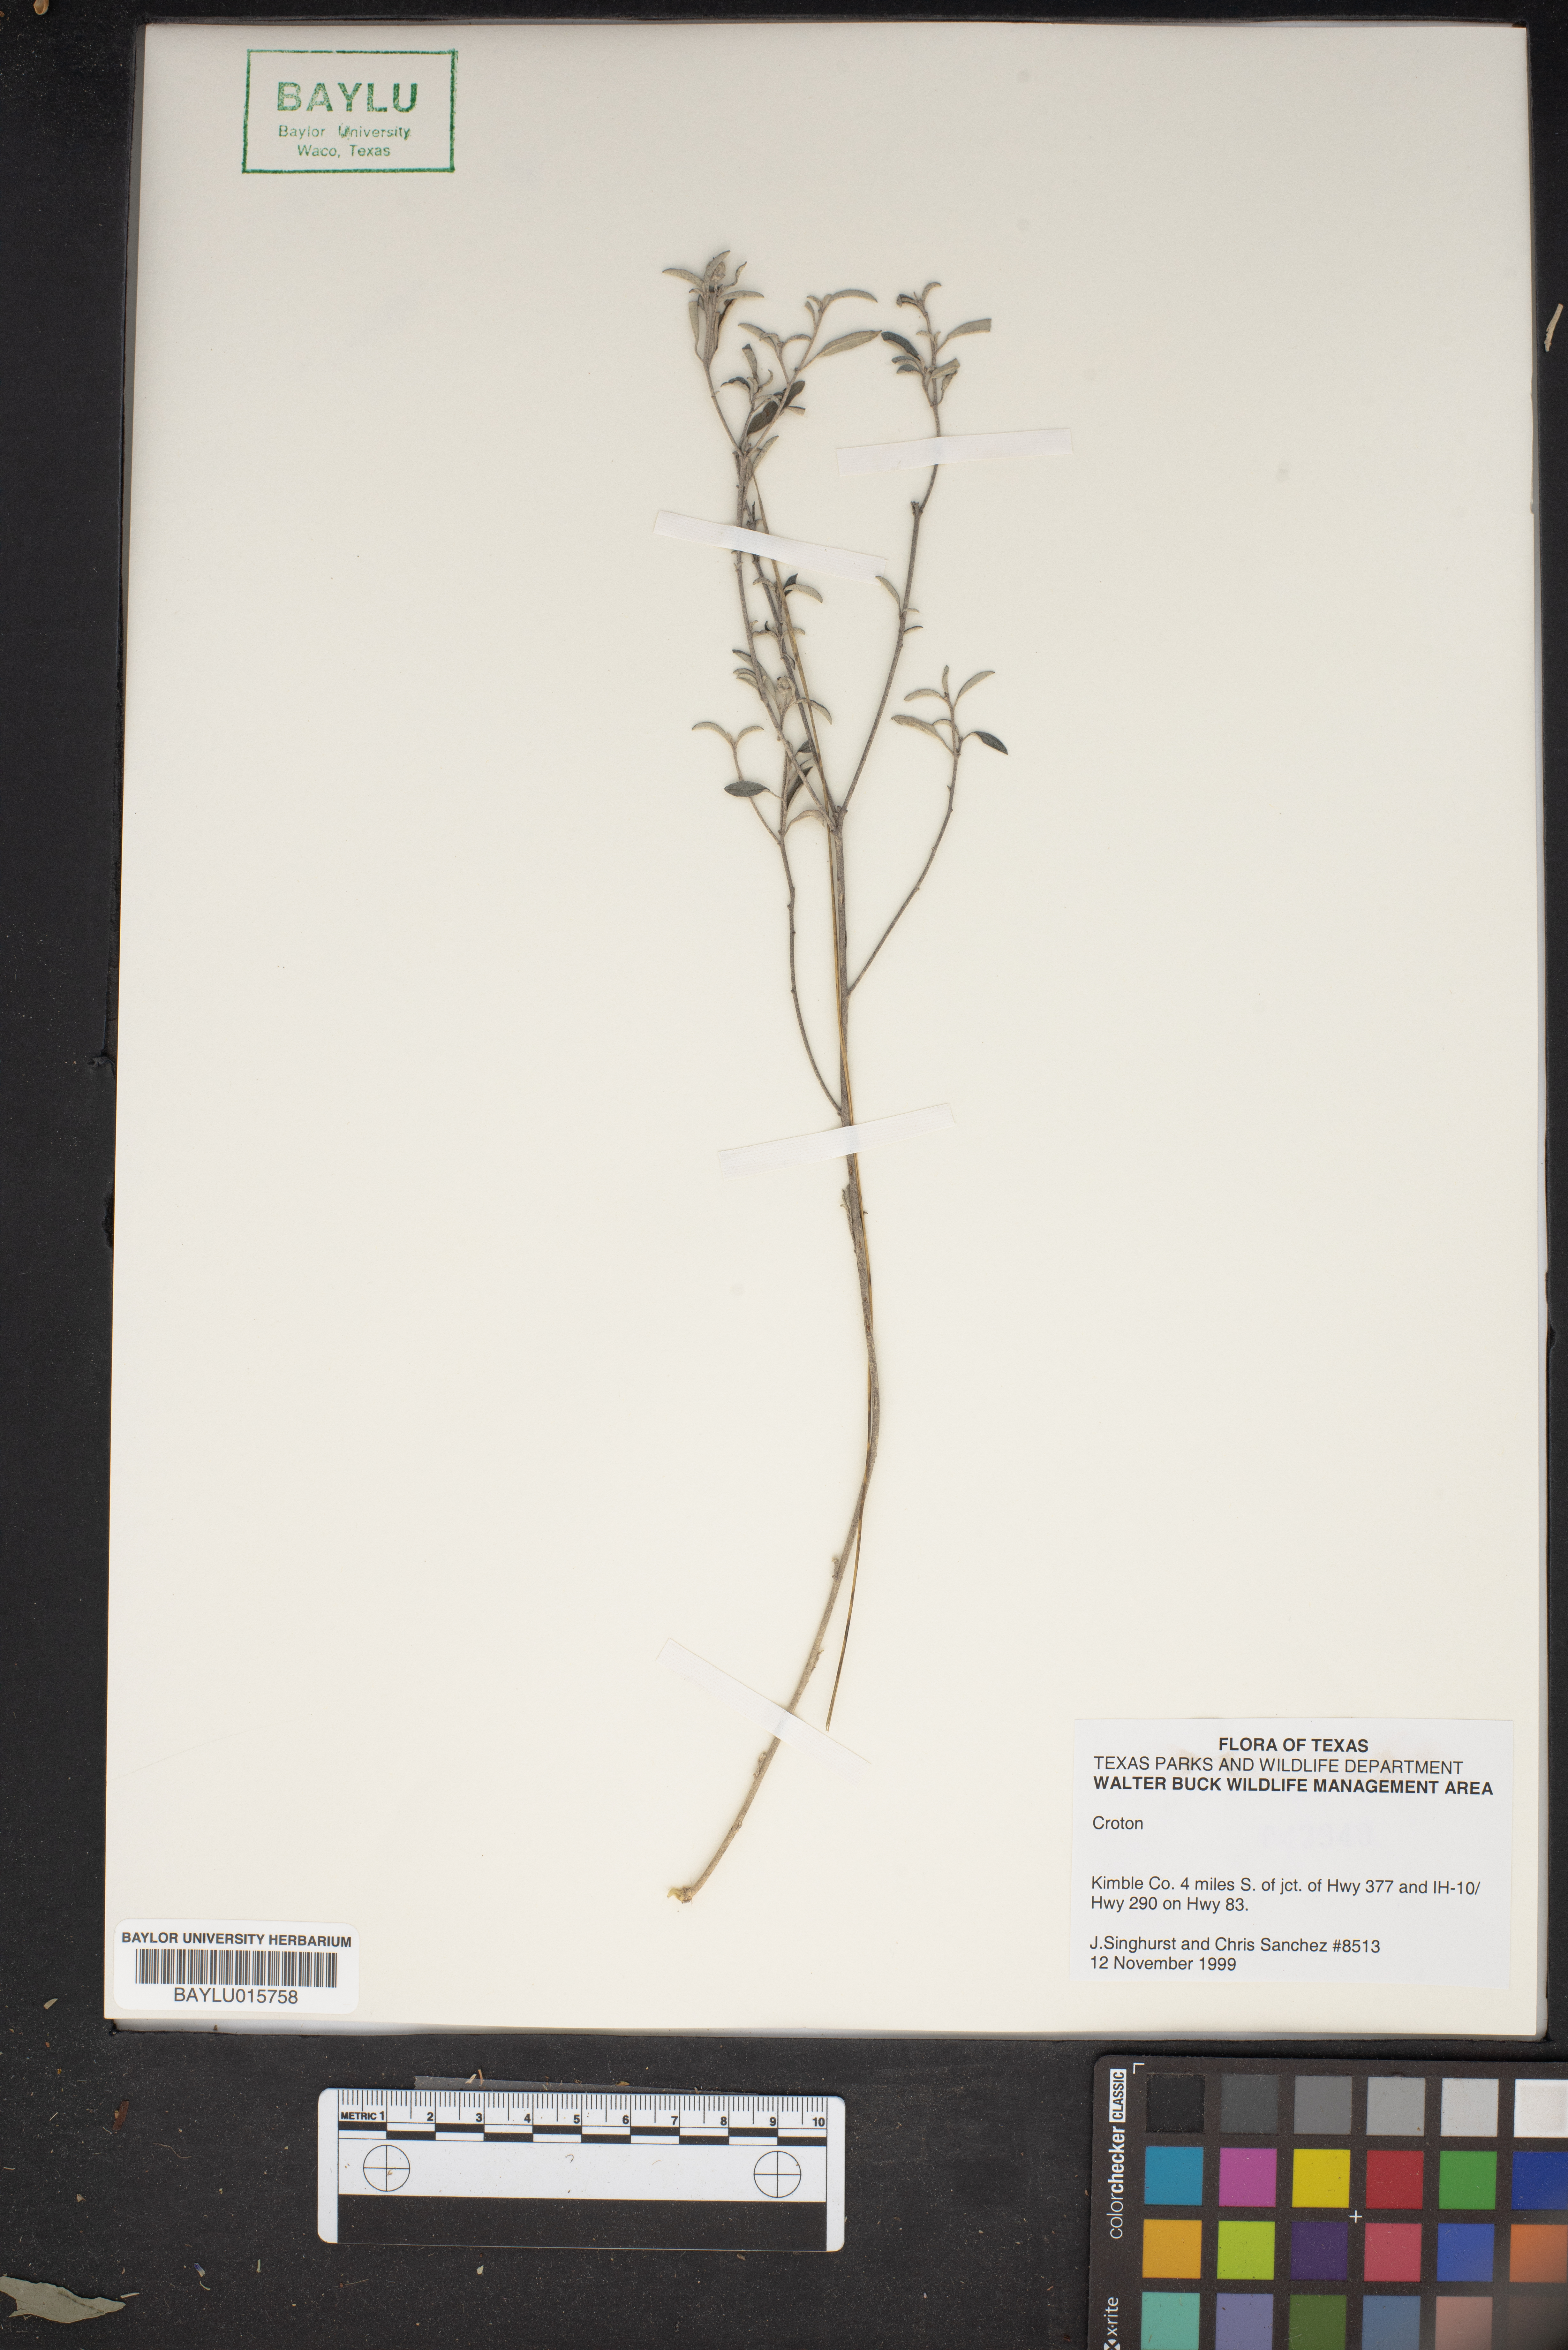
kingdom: Plantae
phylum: Tracheophyta
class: Magnoliopsida
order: Malpighiales
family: Euphorbiaceae
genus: Croton
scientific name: Croton
